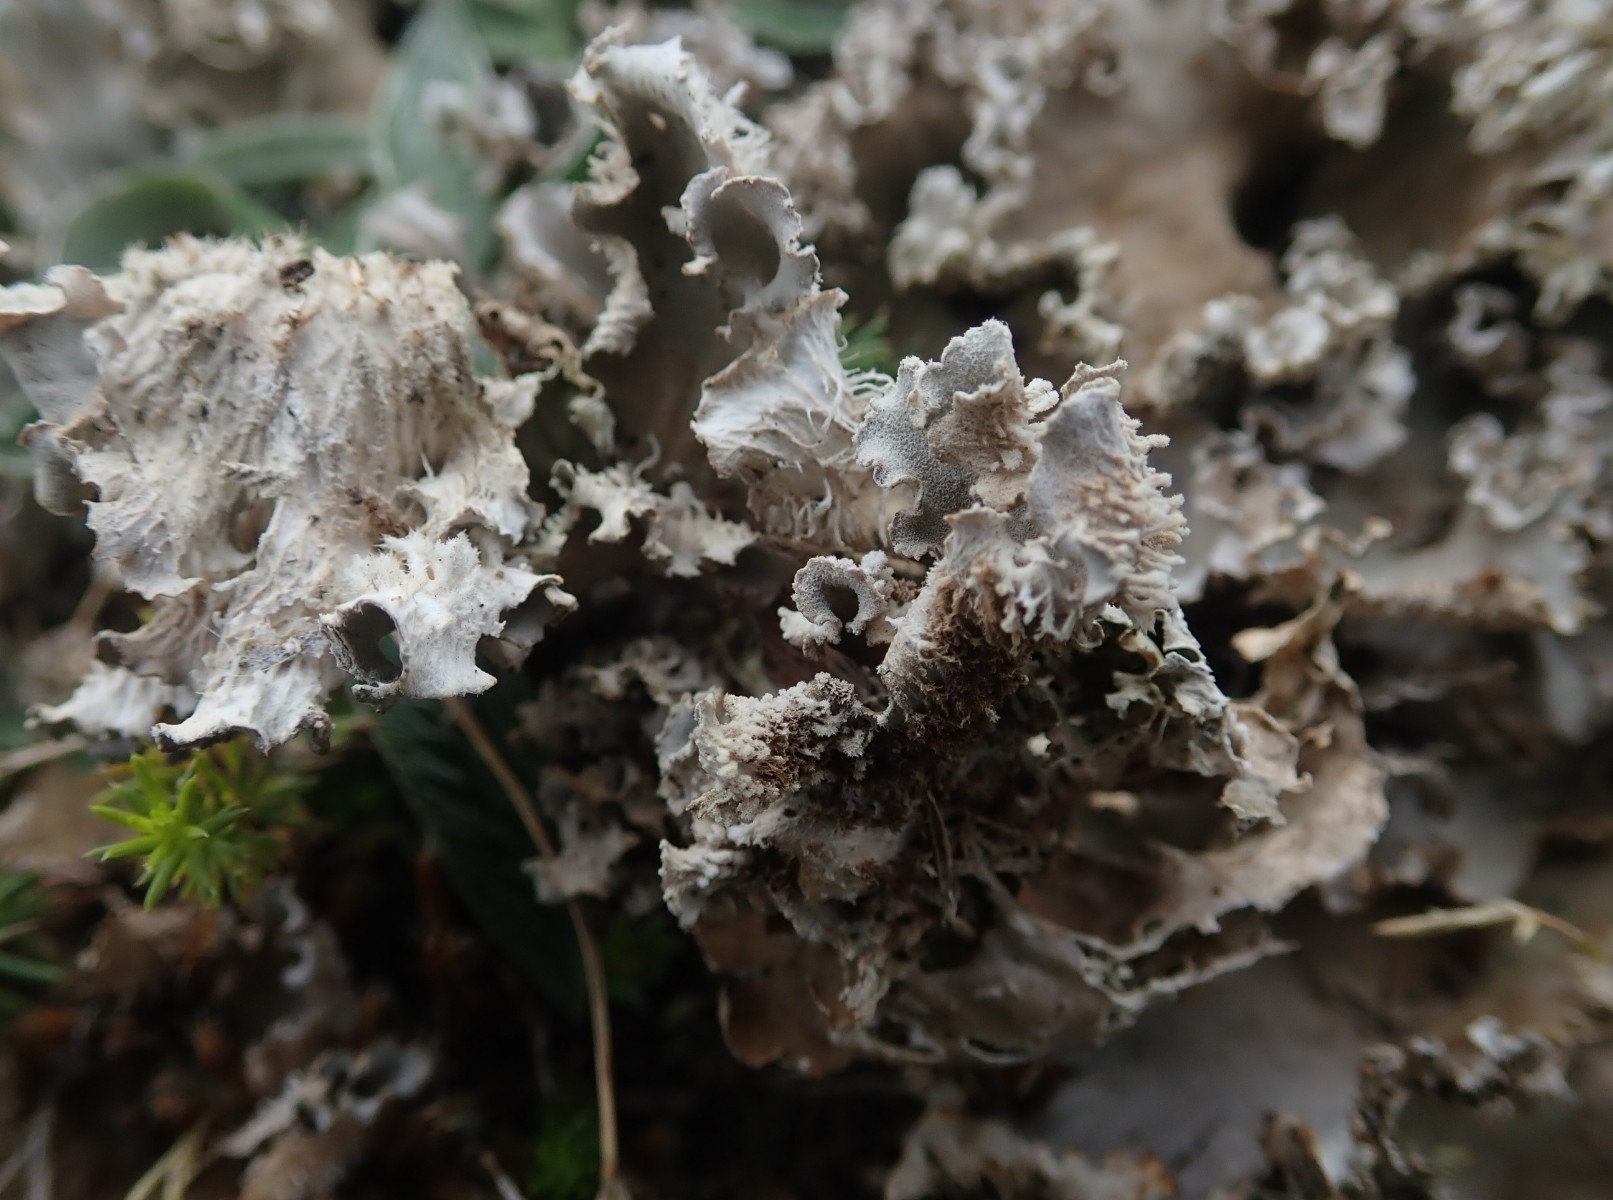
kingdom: Fungi
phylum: Ascomycota
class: Lecanoromycetes
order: Peltigerales
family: Peltigeraceae
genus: Peltigera
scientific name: Peltigera canina
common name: hunde-skjoldlav
